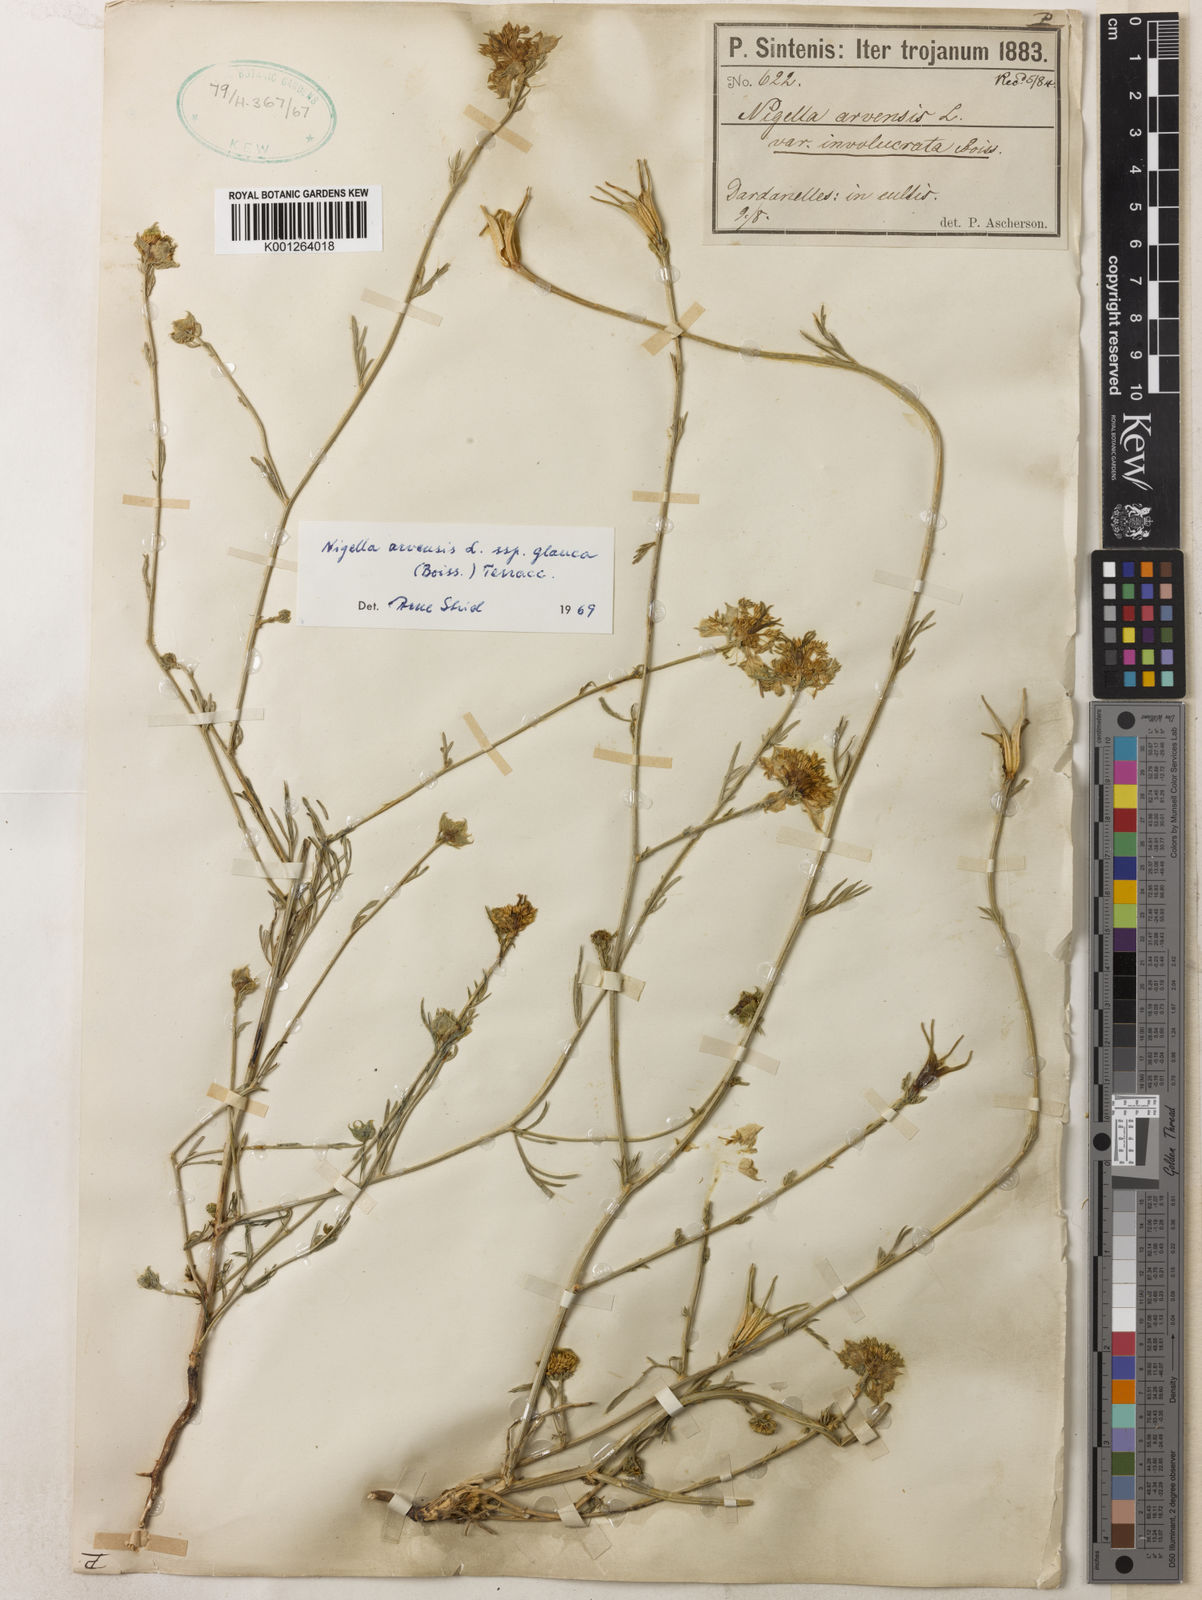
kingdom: Plantae
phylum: Tracheophyta
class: Magnoliopsida
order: Ranunculales
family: Ranunculaceae
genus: Nigella
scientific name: Nigella arvensis
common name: Wild fennel-flower
